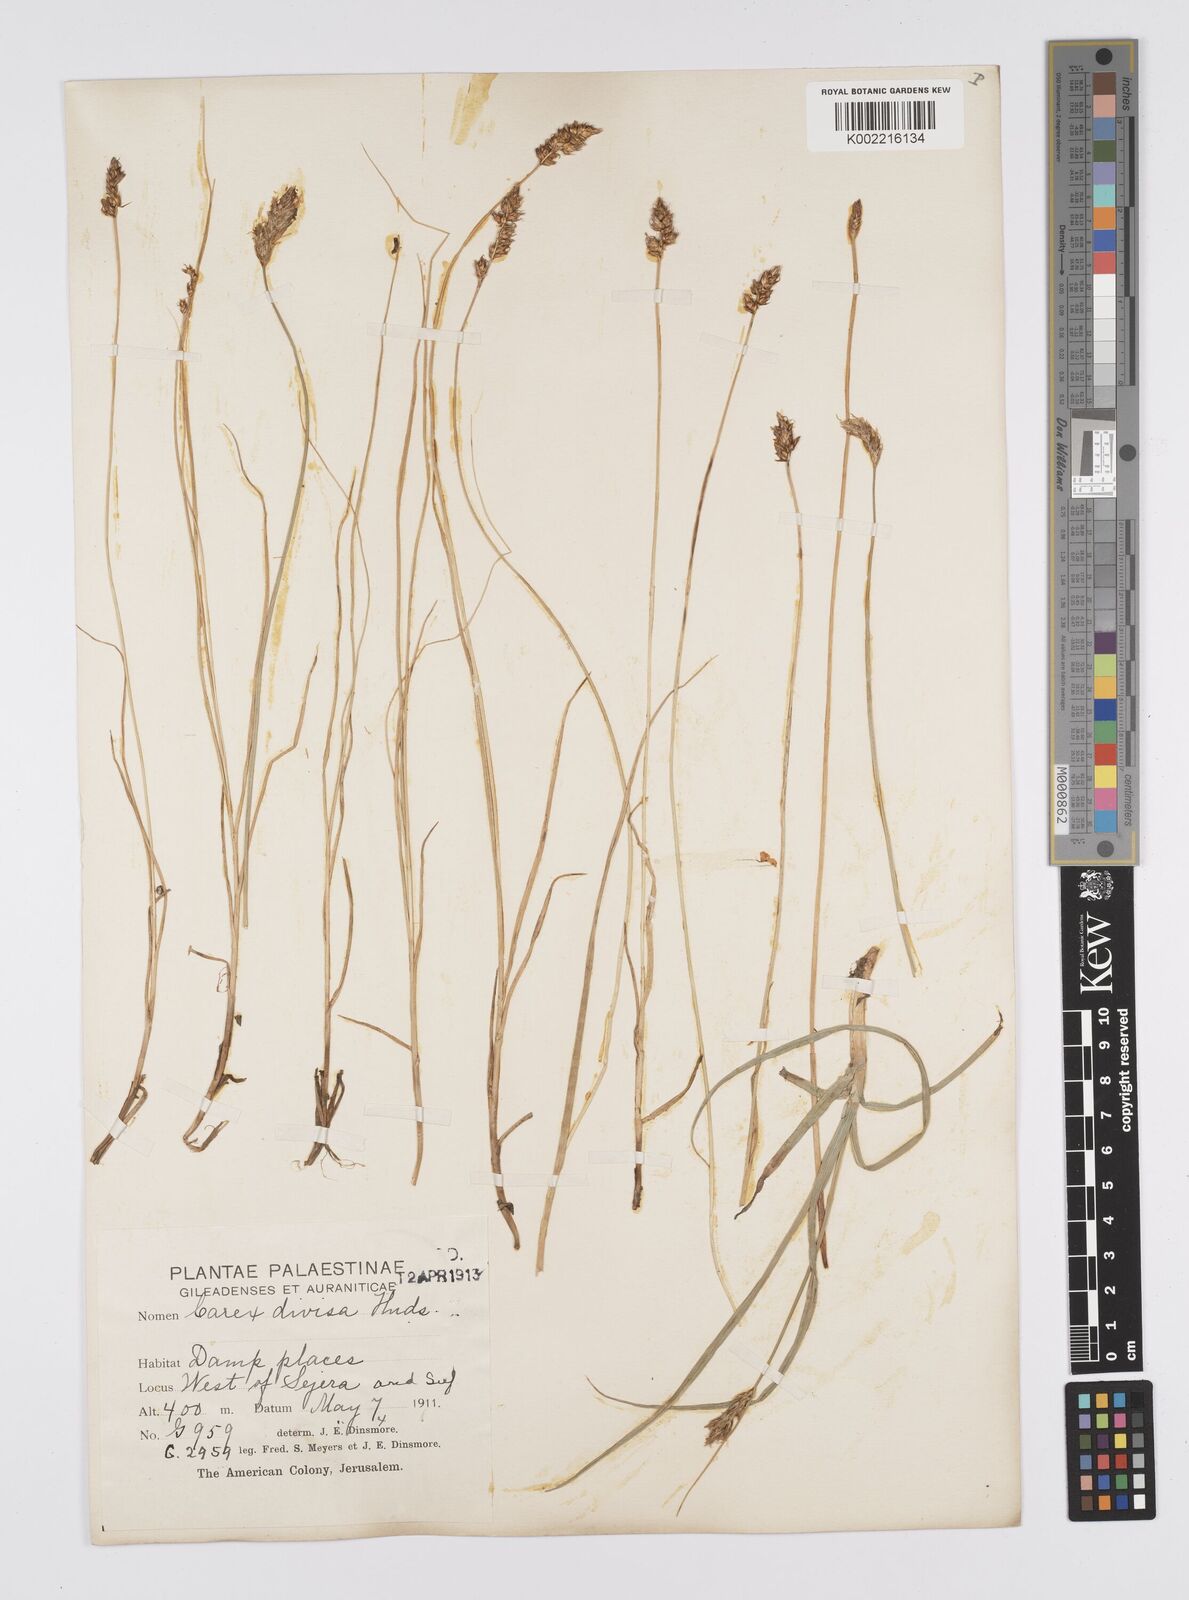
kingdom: Plantae
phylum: Tracheophyta
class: Liliopsida
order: Poales
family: Cyperaceae
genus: Carex
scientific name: Carex divisa
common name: Divided sedge
